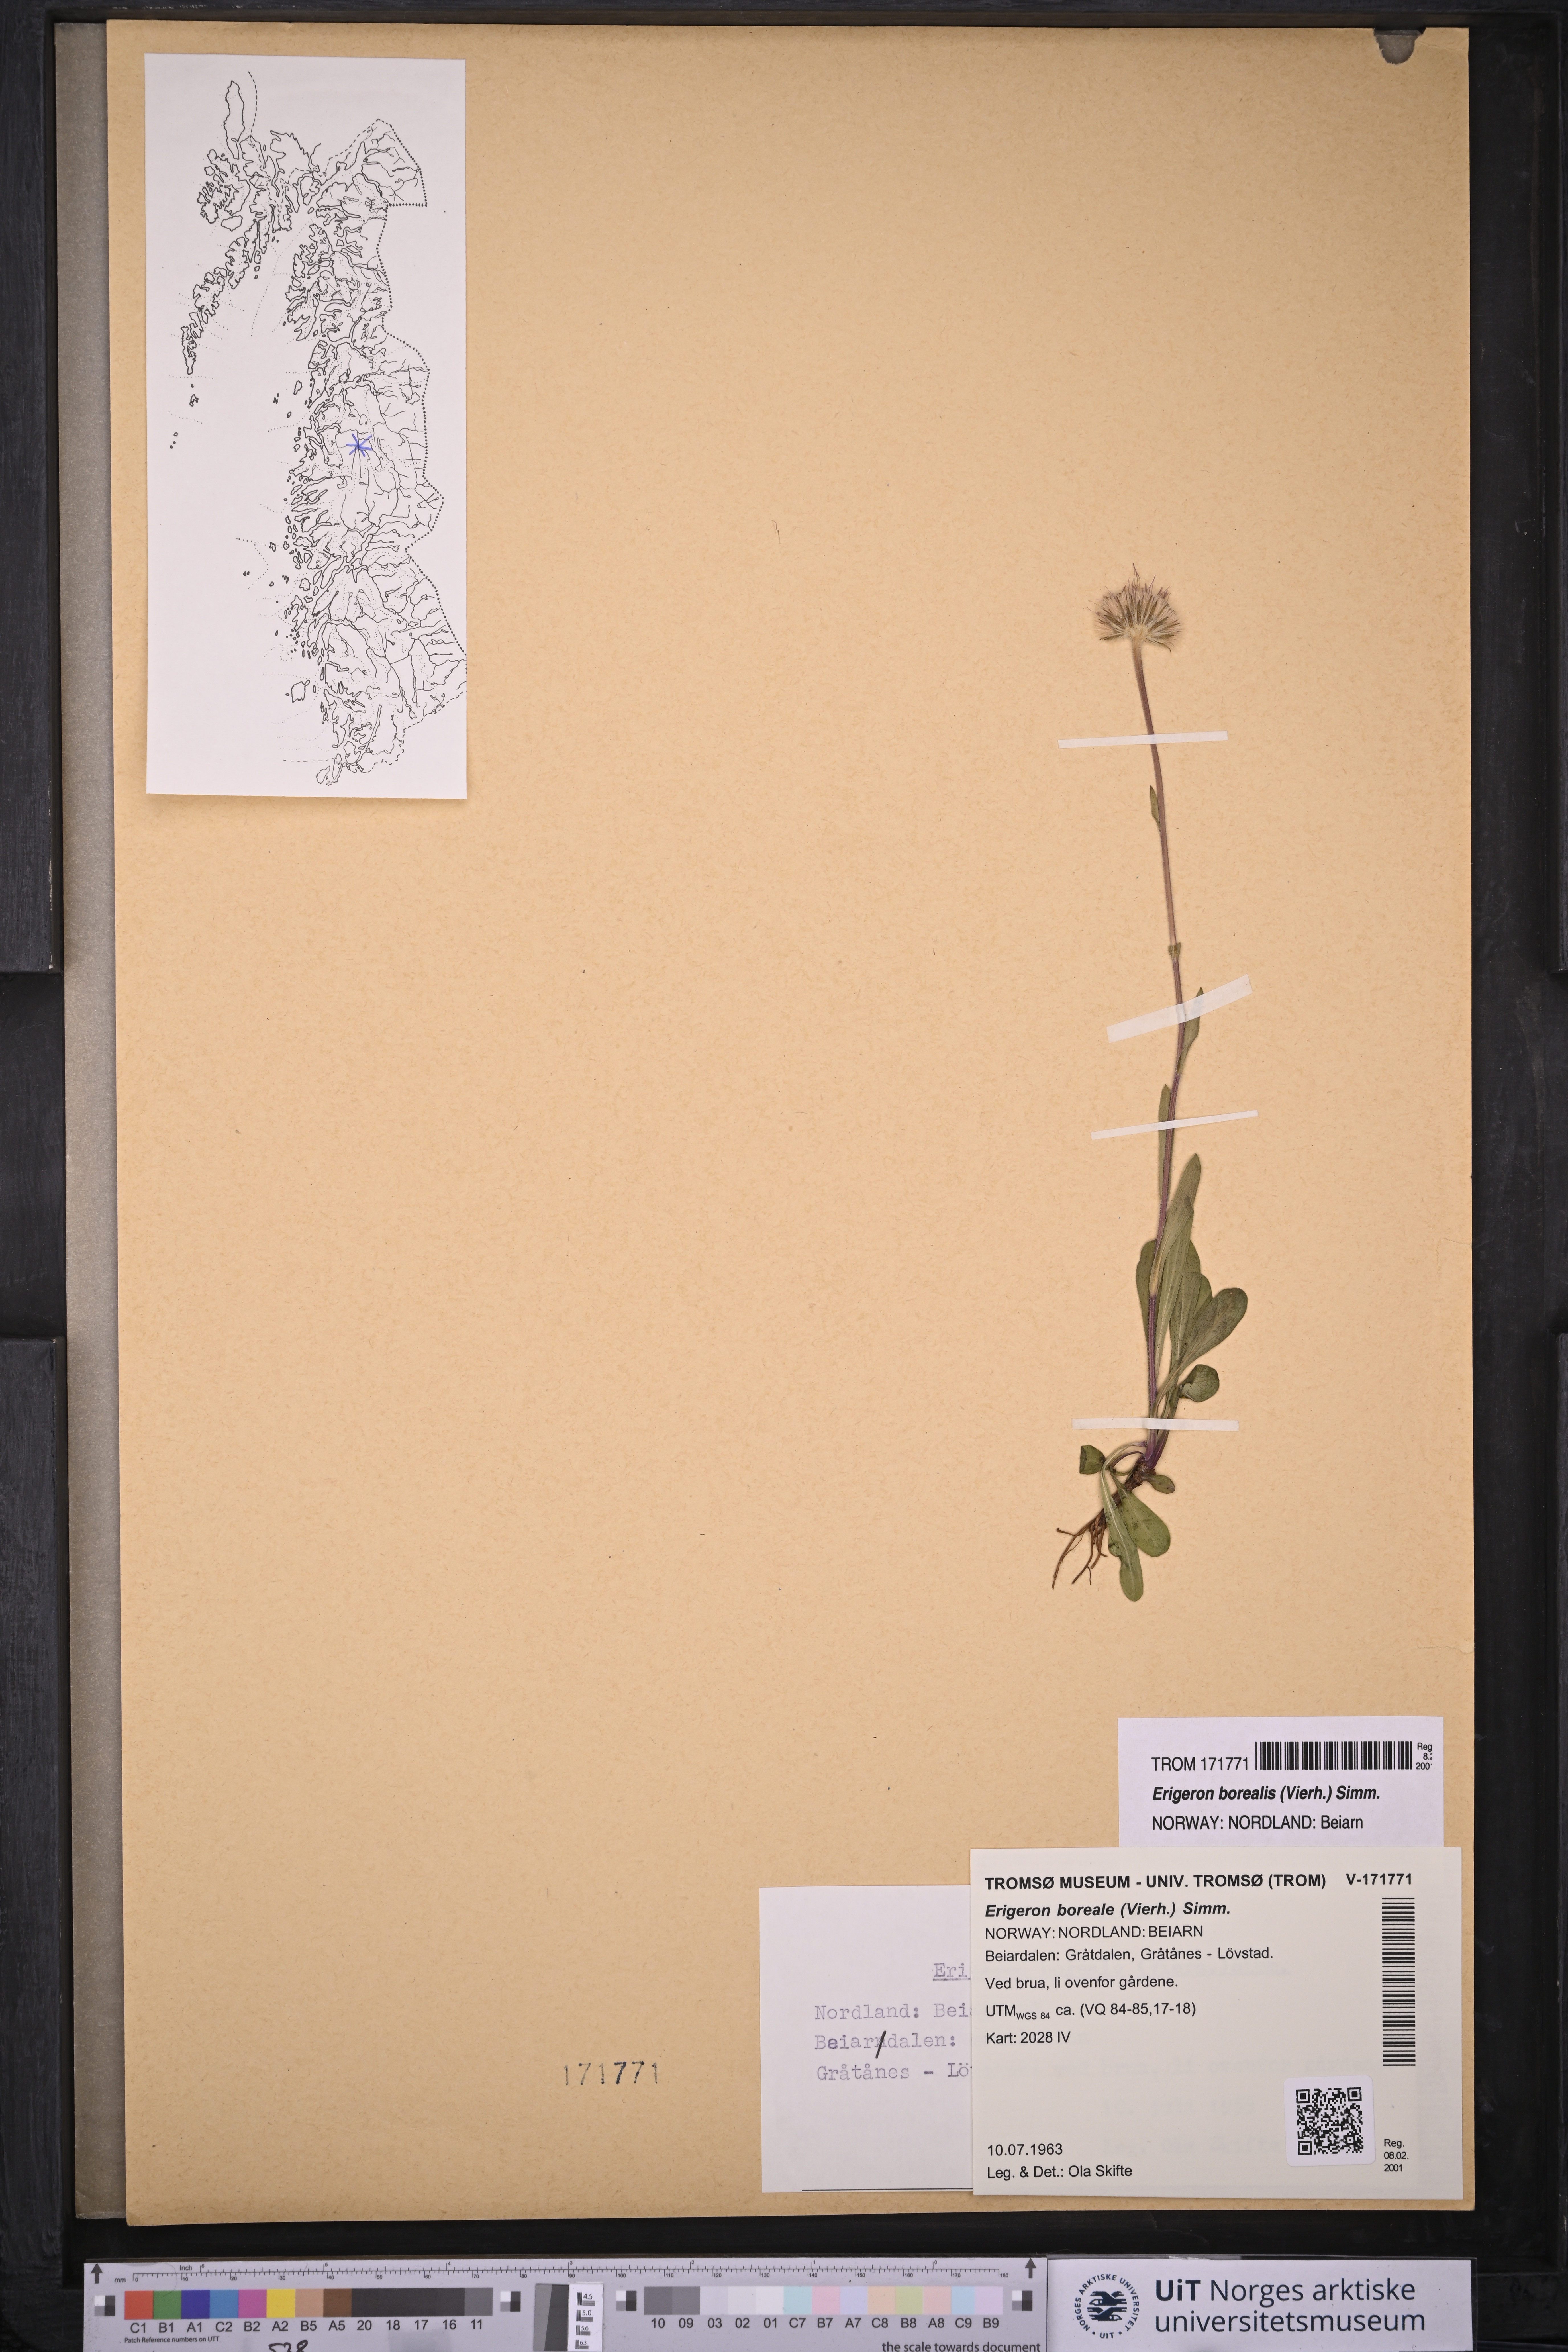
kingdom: Plantae
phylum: Tracheophyta
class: Magnoliopsida
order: Asterales
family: Asteraceae
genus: Erigeron
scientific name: Erigeron borealis
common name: Alpine fleabane
